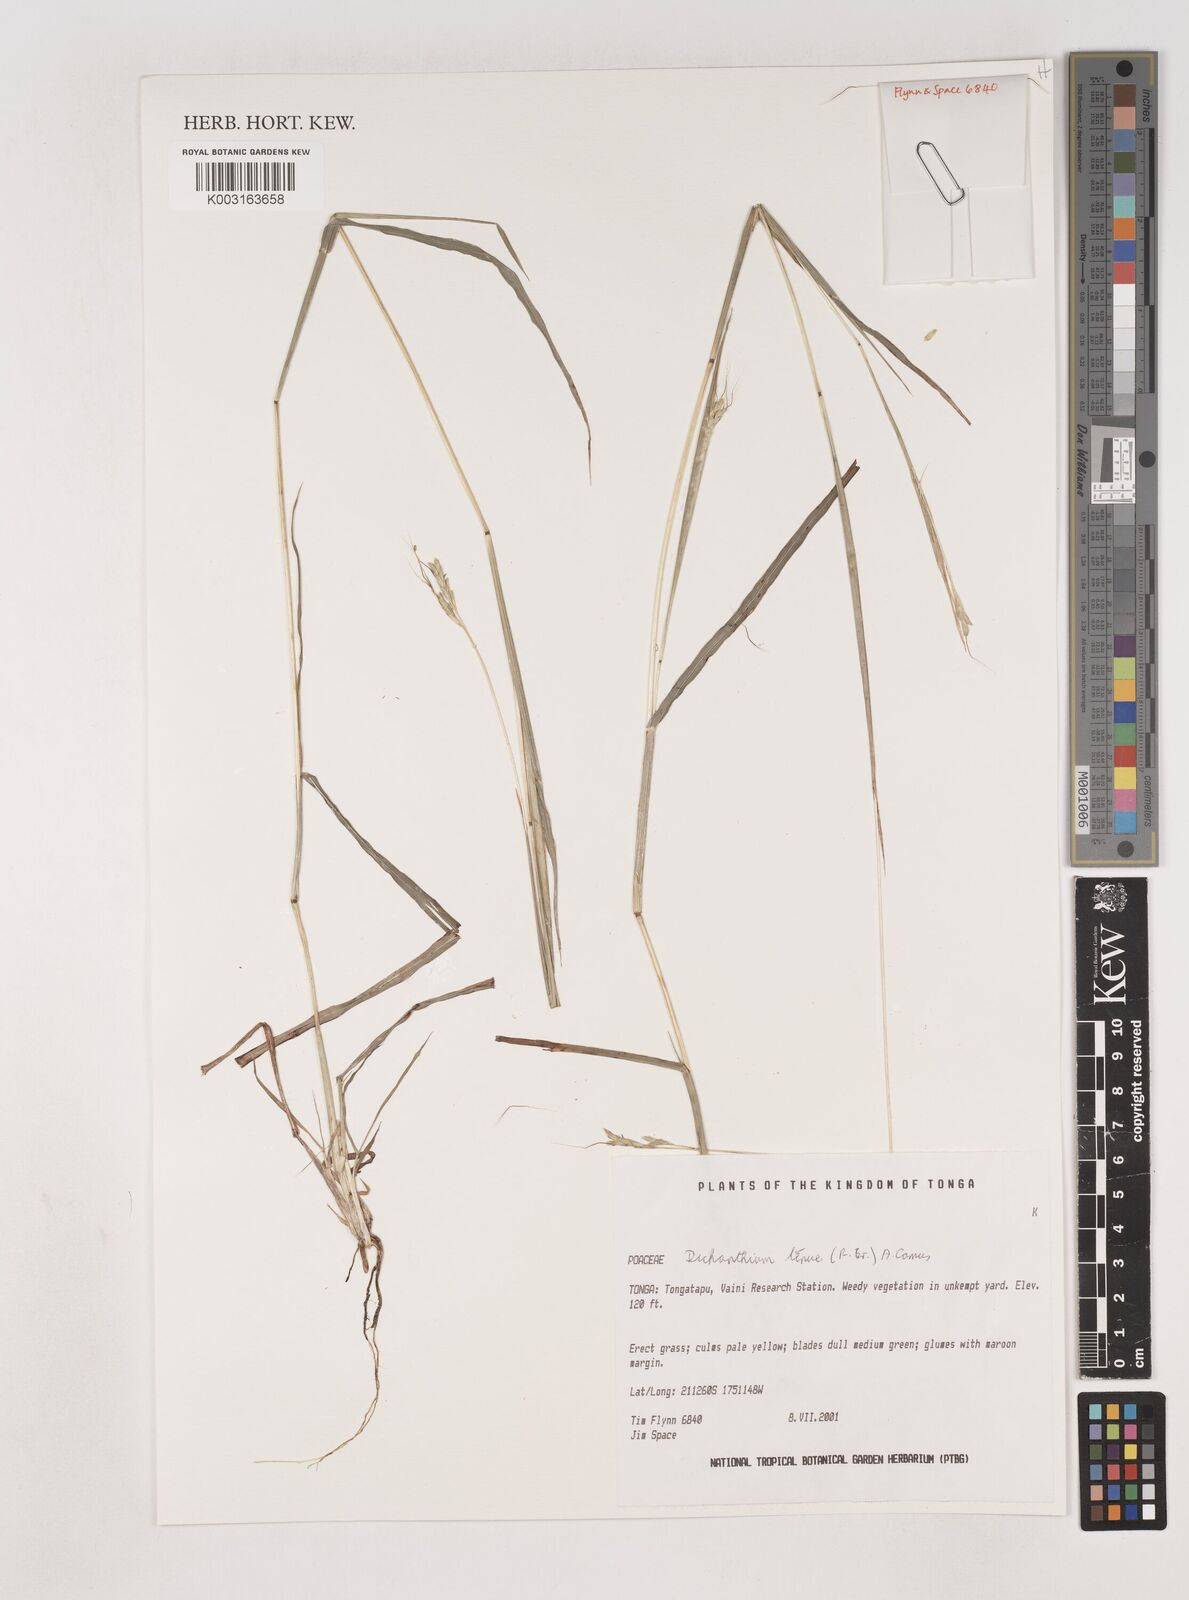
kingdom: Plantae
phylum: Tracheophyta
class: Liliopsida
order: Poales
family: Poaceae
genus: Dichanthium
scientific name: Dichanthium tenue
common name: Slender bluestem
